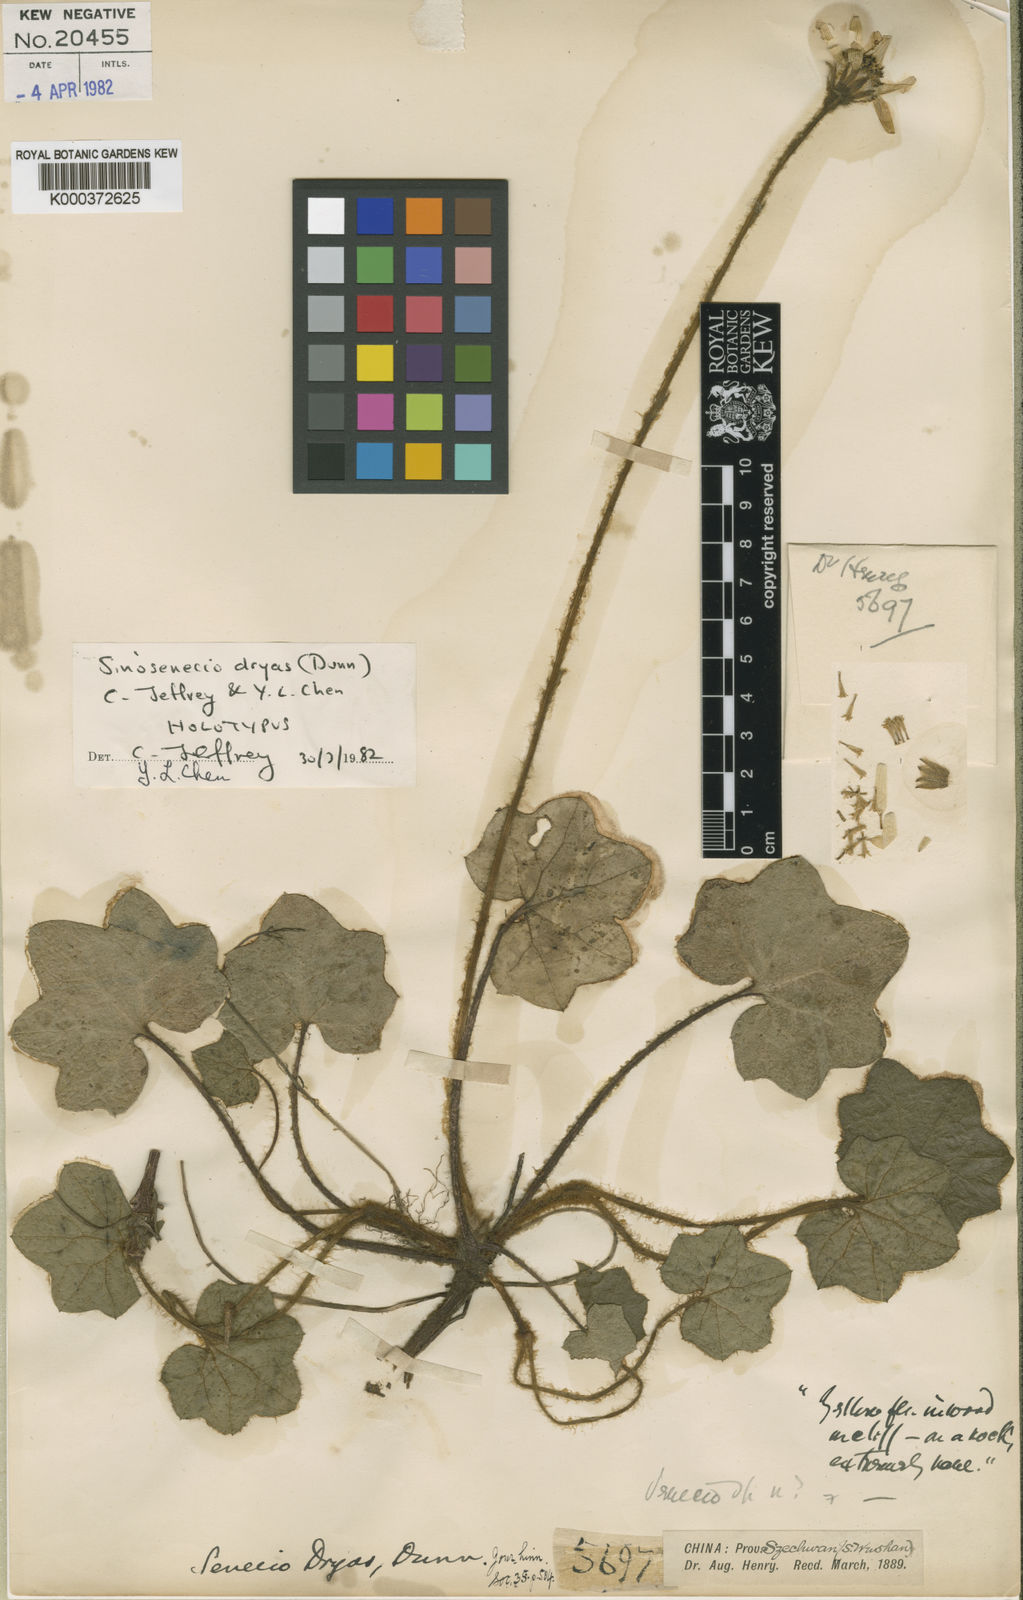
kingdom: Plantae
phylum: Tracheophyta
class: Magnoliopsida
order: Asterales
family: Asteraceae
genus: Sinosenecio
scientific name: Sinosenecio dryas
